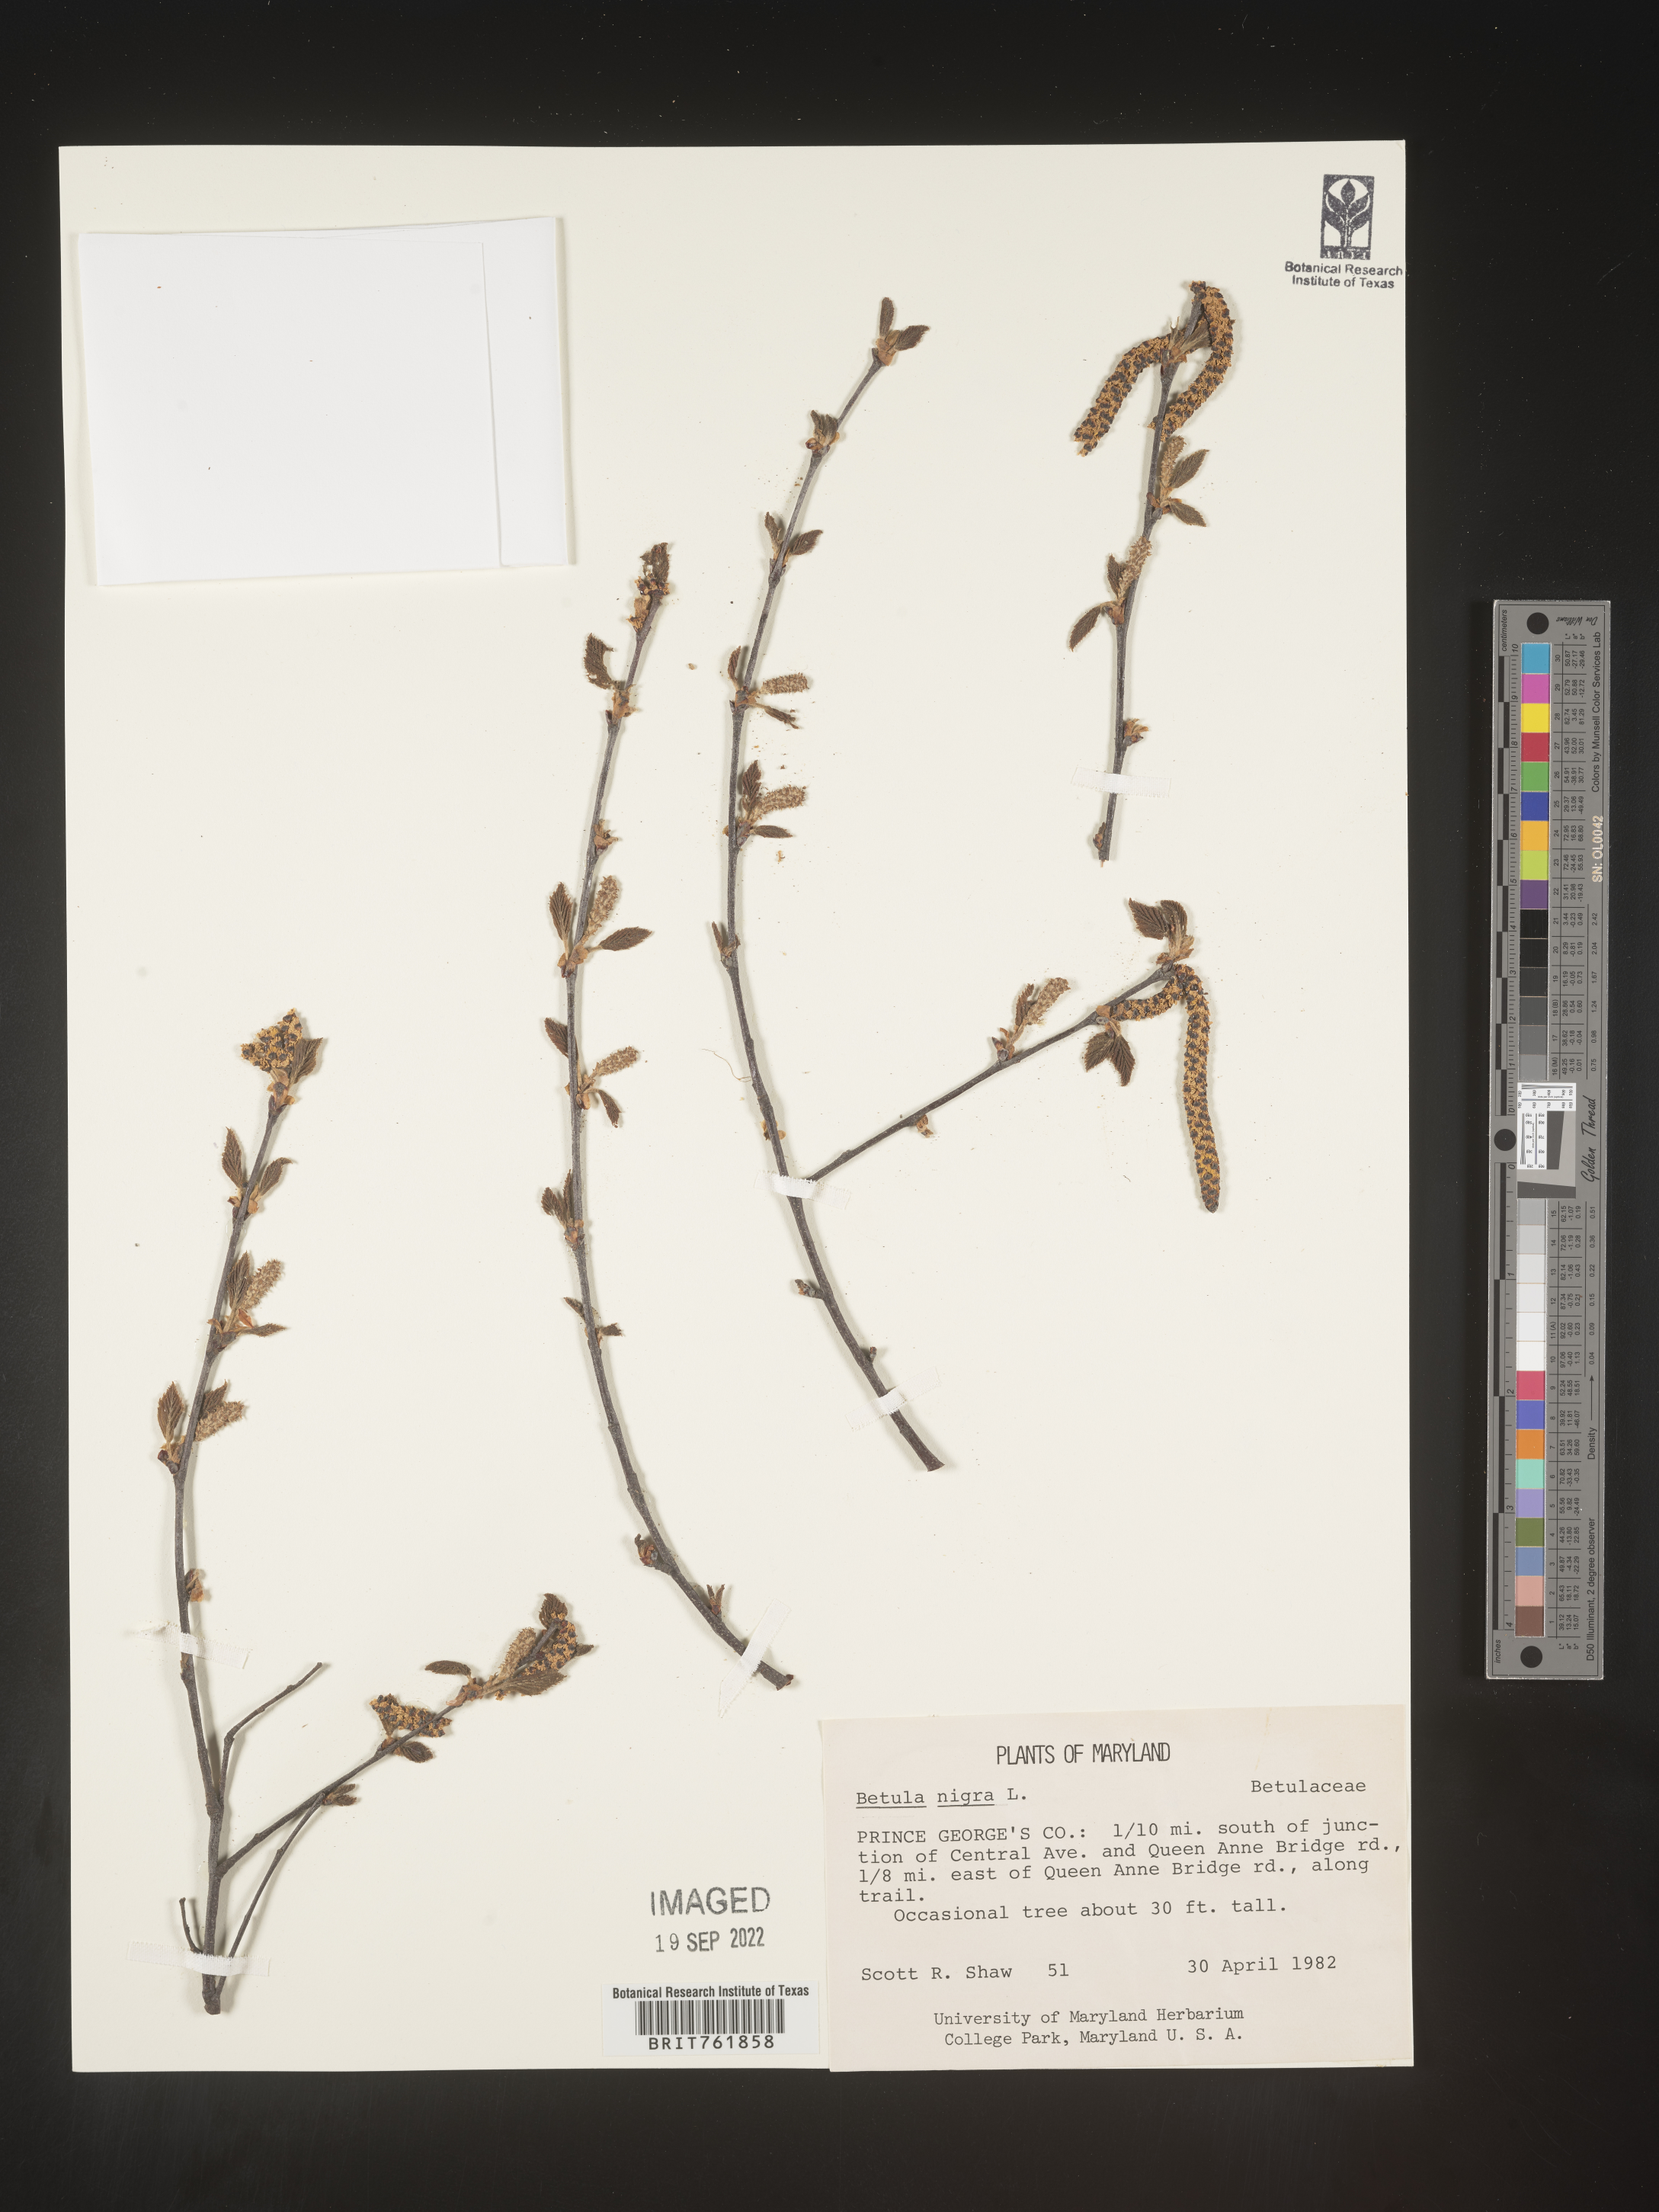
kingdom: Plantae
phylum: Tracheophyta
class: Magnoliopsida
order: Fagales
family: Betulaceae
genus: Betula
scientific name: Betula nigra
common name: Black birch
